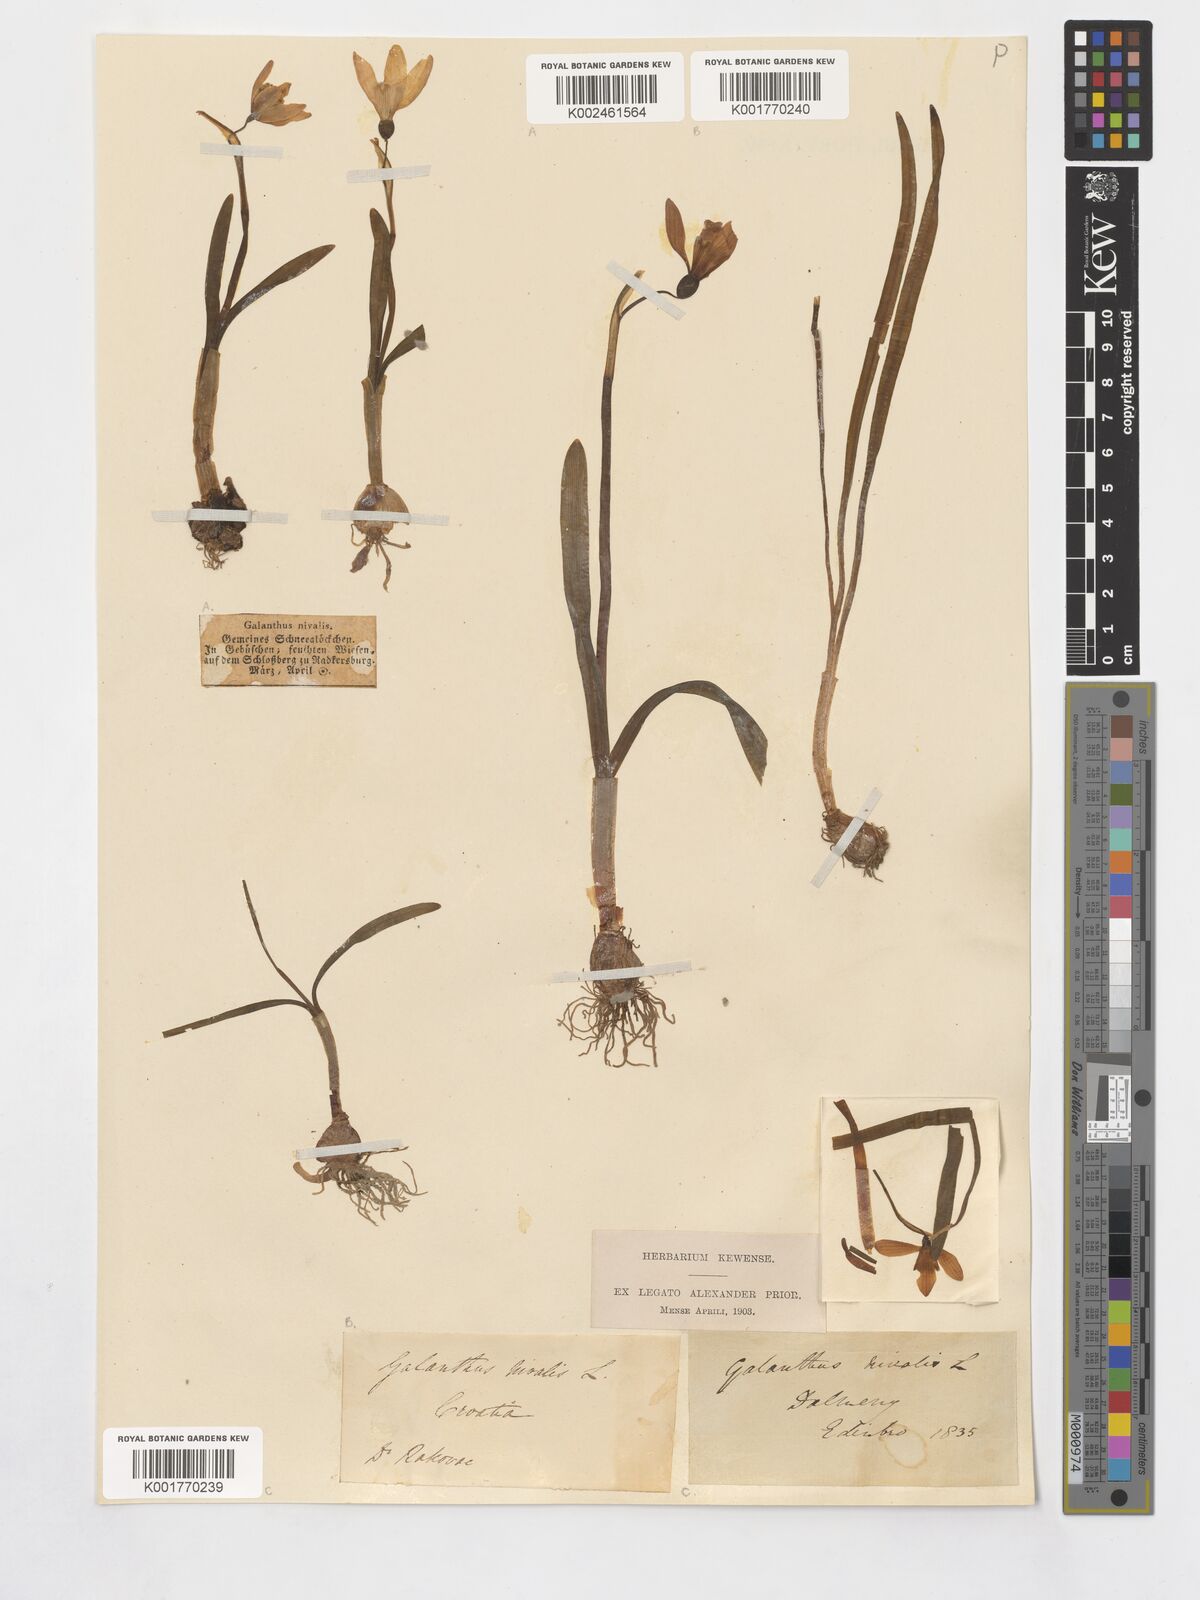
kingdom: Plantae
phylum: Tracheophyta
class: Liliopsida
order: Asparagales
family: Amaryllidaceae
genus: Galanthus
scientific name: Galanthus nivalis
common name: Snowdrop
